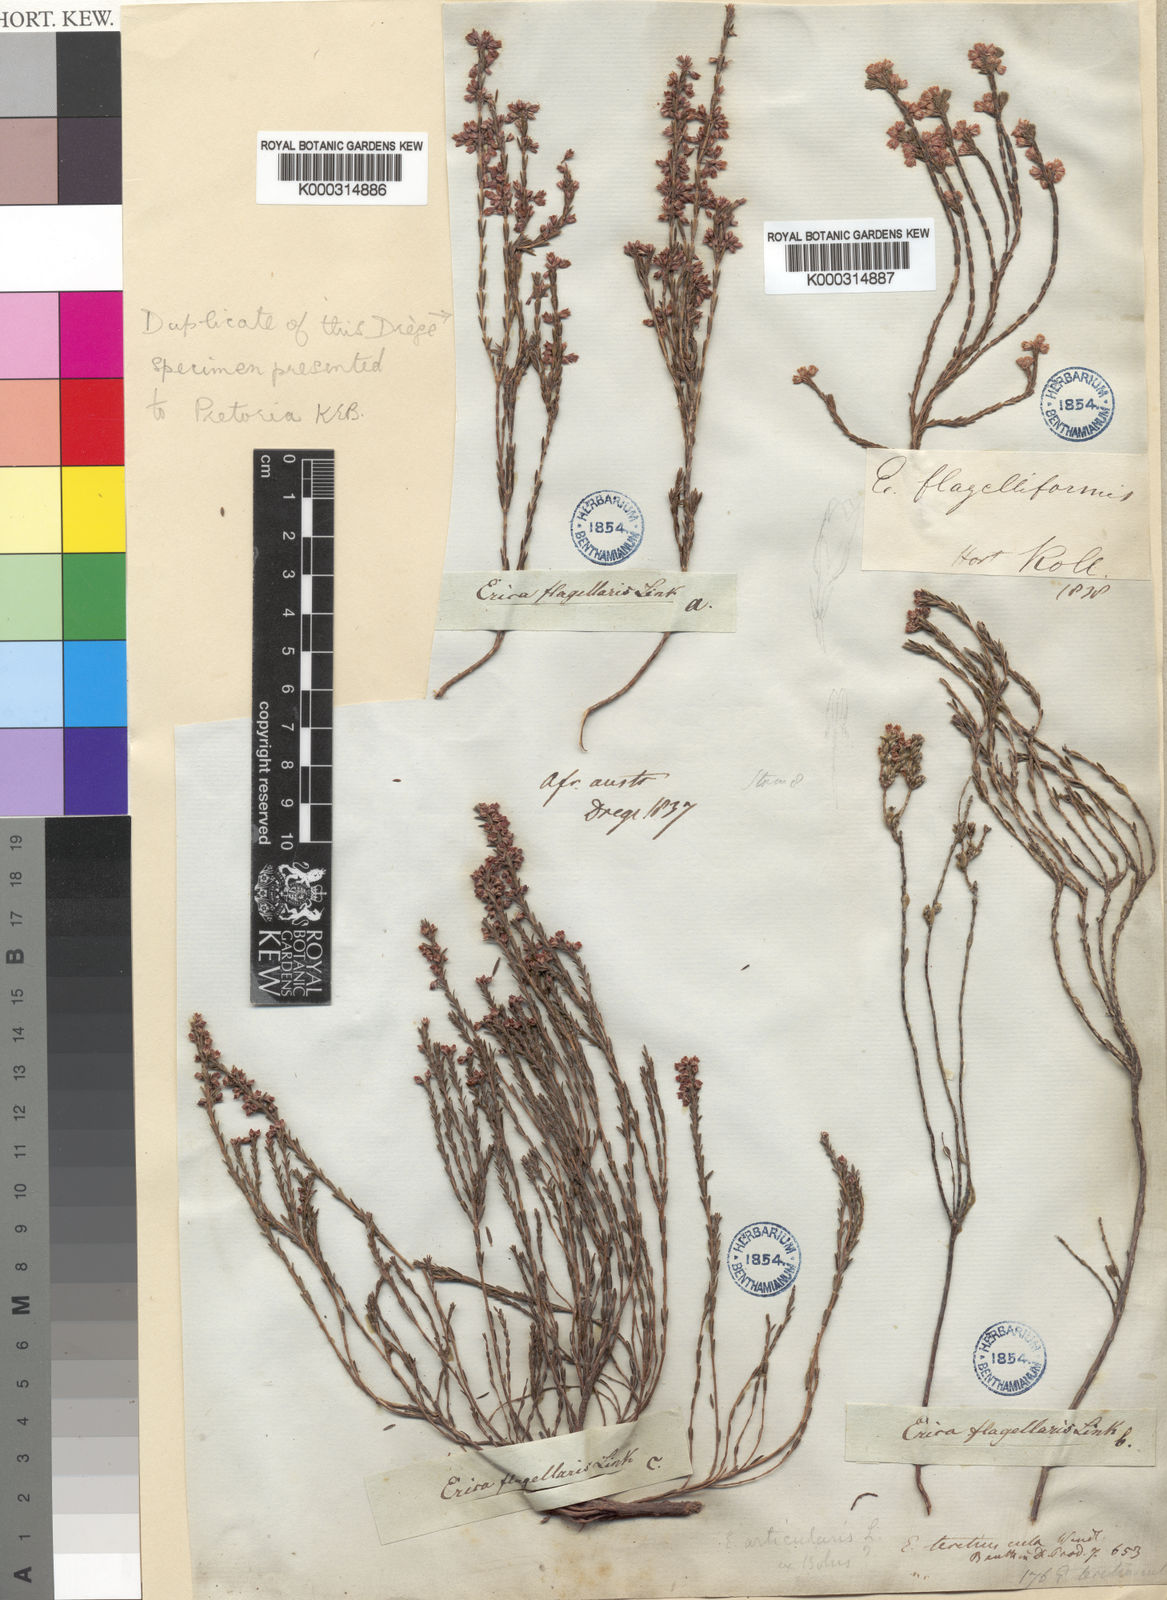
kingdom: Plantae
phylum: Tracheophyta
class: Magnoliopsida
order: Ericales
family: Ericaceae
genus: Erica
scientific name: Erica articularis
